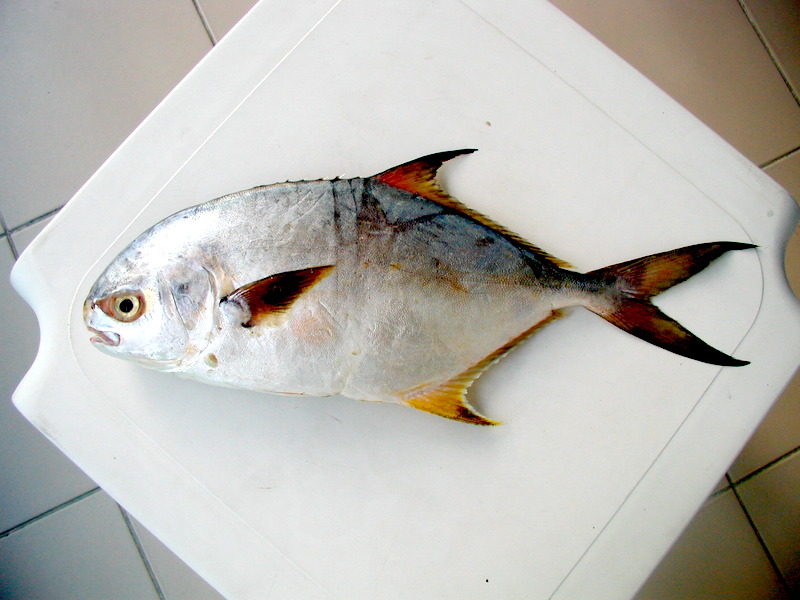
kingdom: Animalia
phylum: Chordata
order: Perciformes
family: Carangidae
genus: Trachinotus
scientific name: Trachinotus blochii
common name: Snubnose pompano
